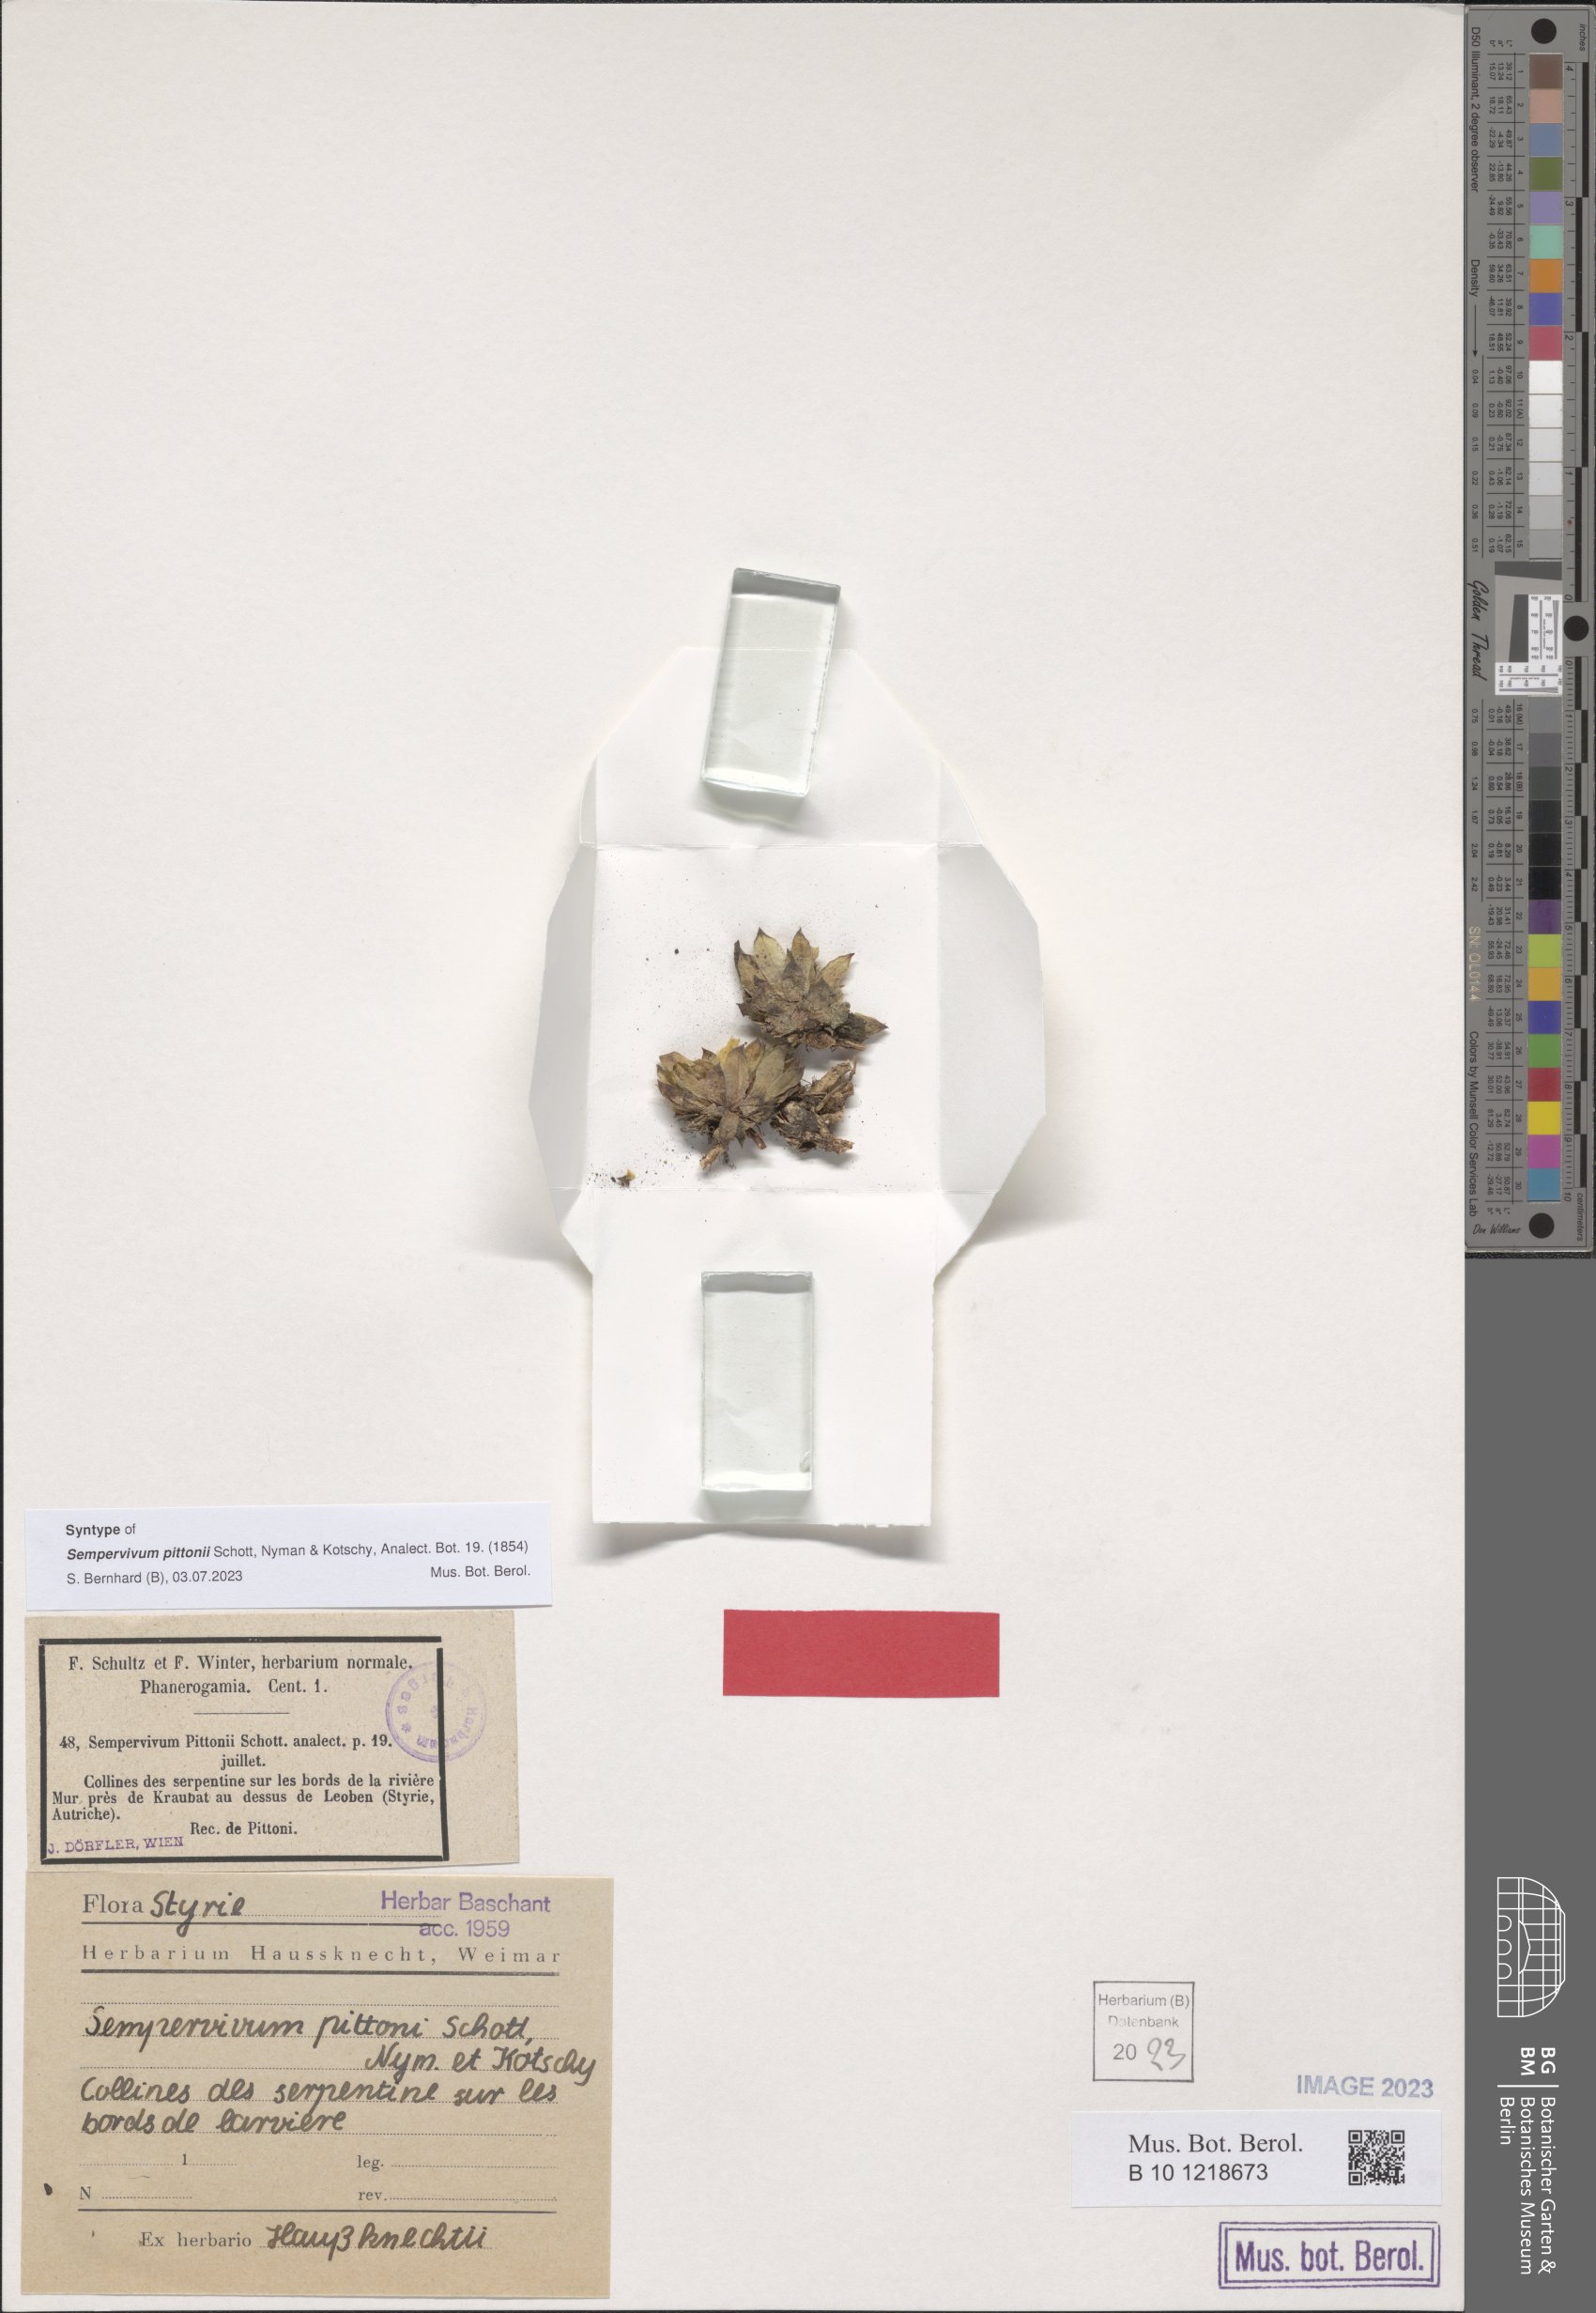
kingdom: Plantae
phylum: Tracheophyta
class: Magnoliopsida
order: Saxifragales
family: Crassulaceae
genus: Sempervivum
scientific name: Sempervivum pittonii
